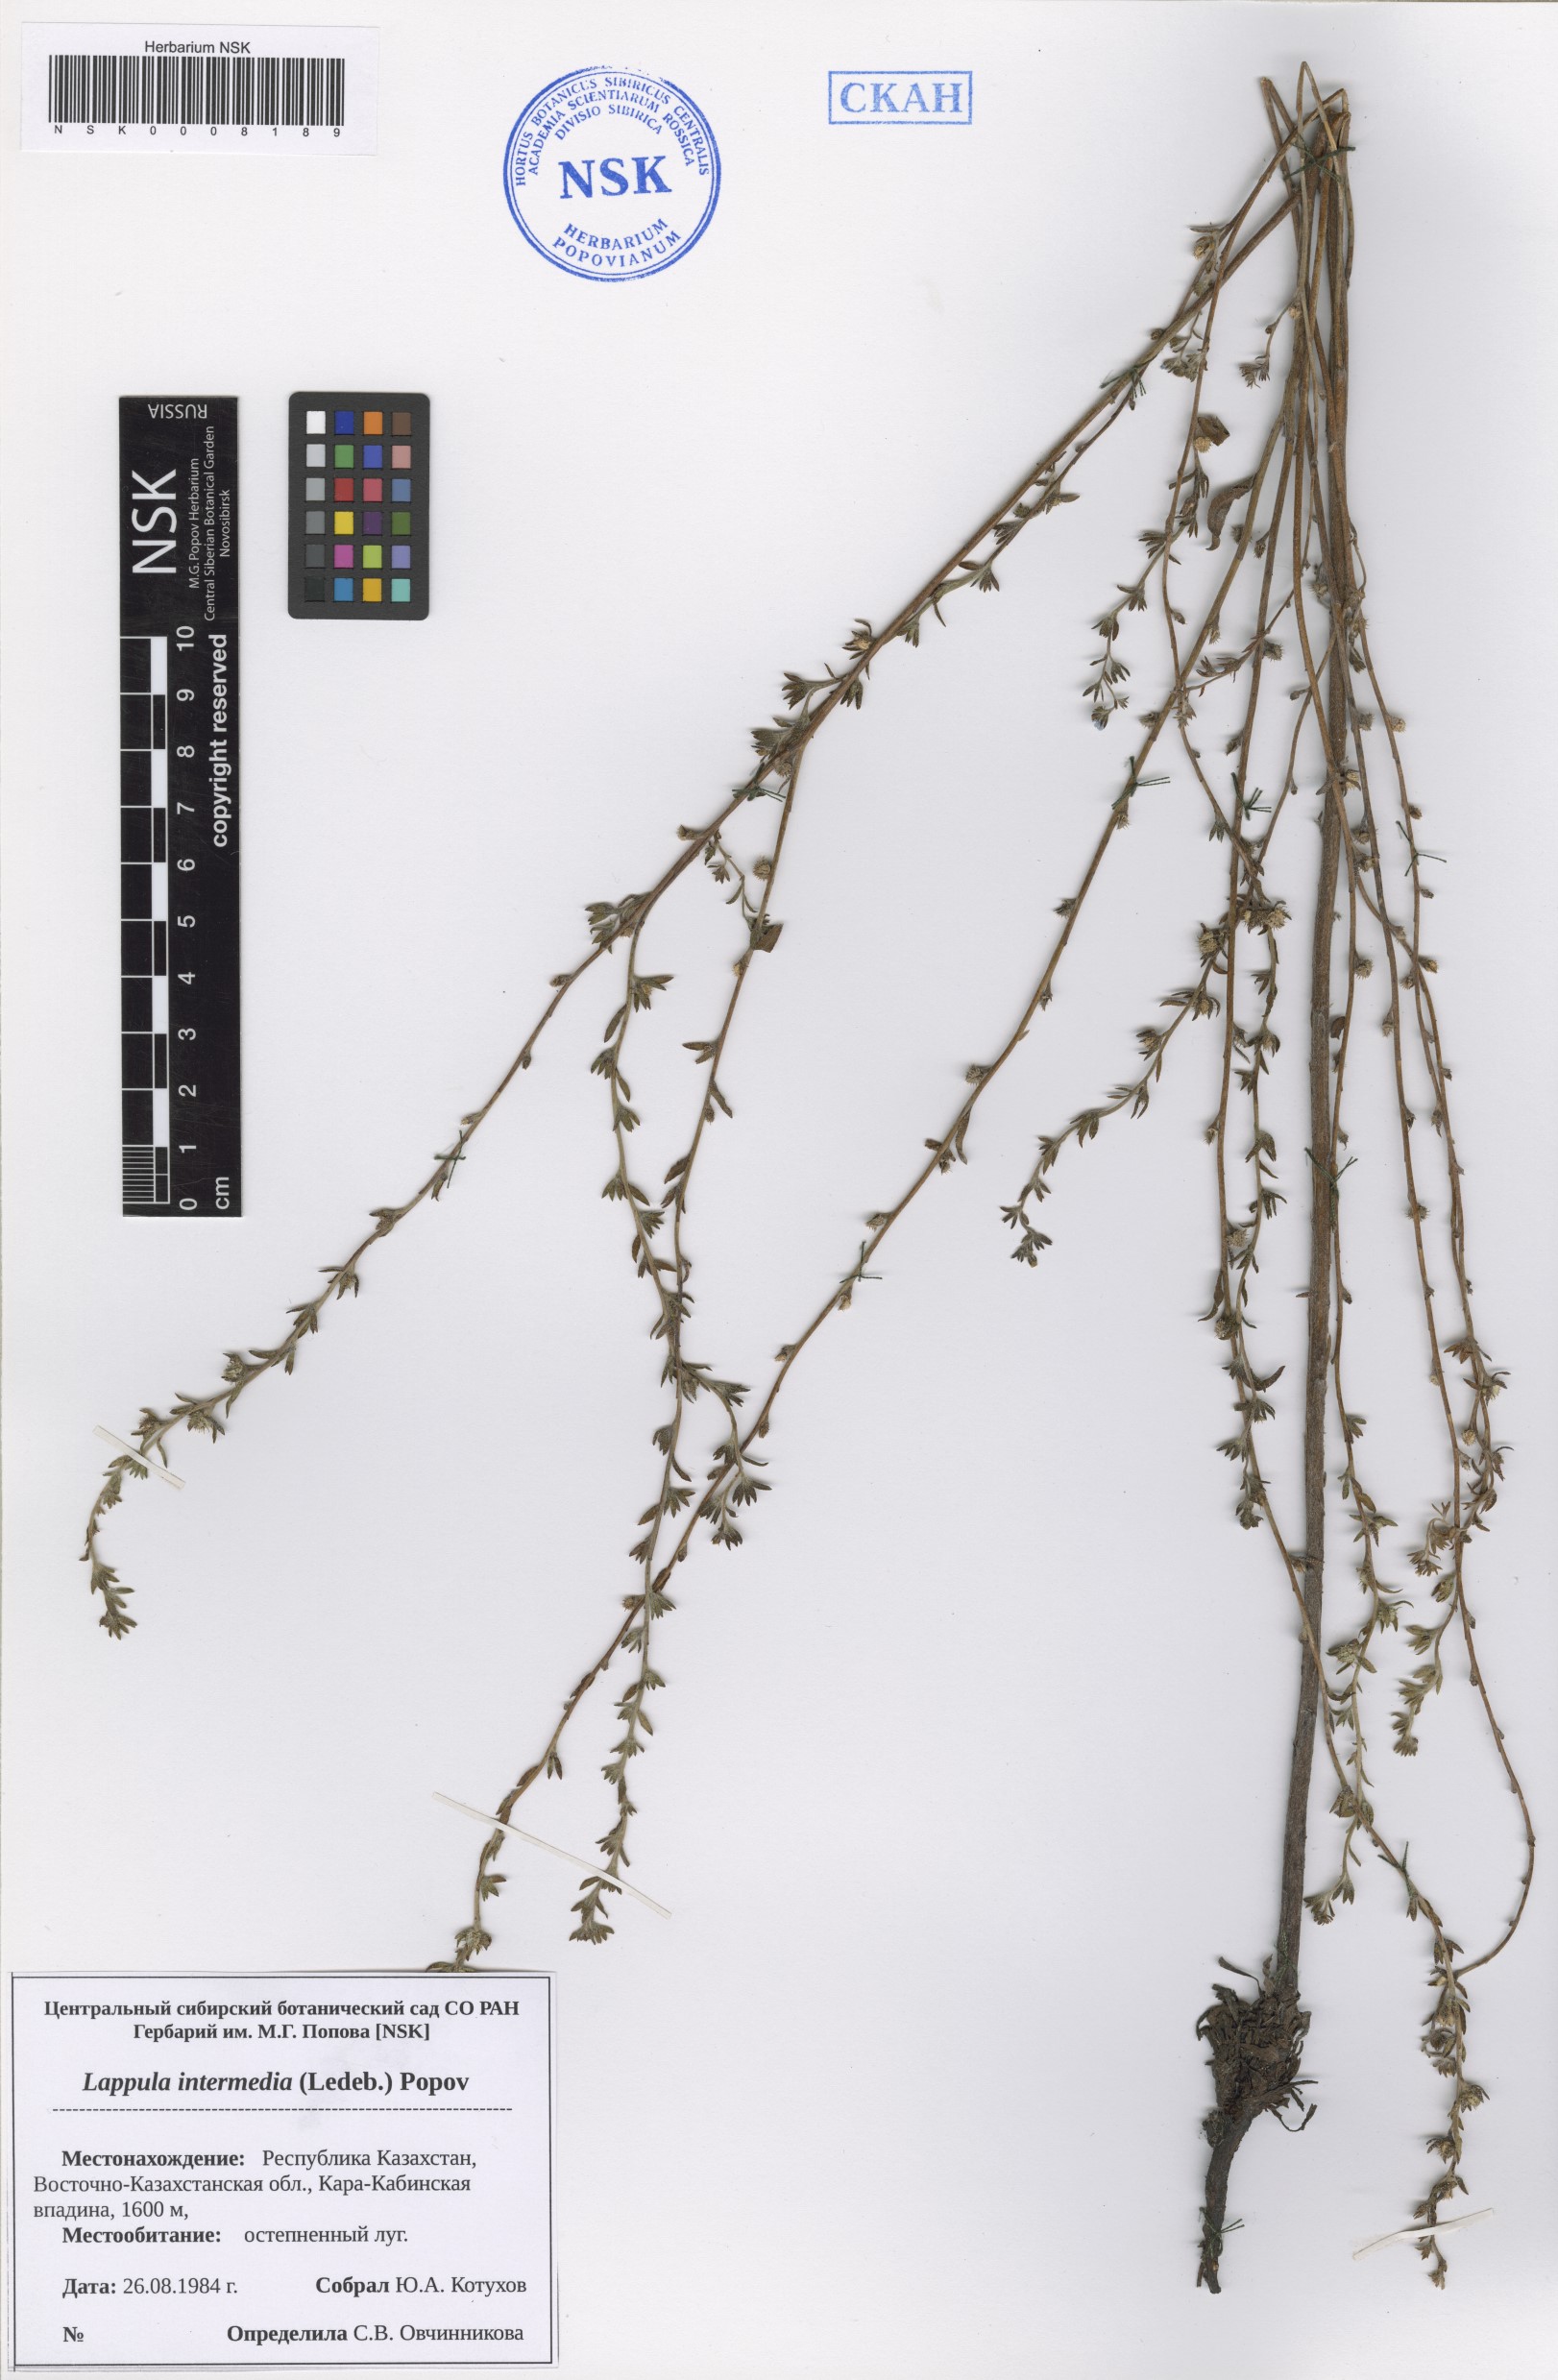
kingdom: Plantae
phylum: Tracheophyta
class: Magnoliopsida
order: Boraginales
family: Boraginaceae
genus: Lappula
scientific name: Lappula intermedia
